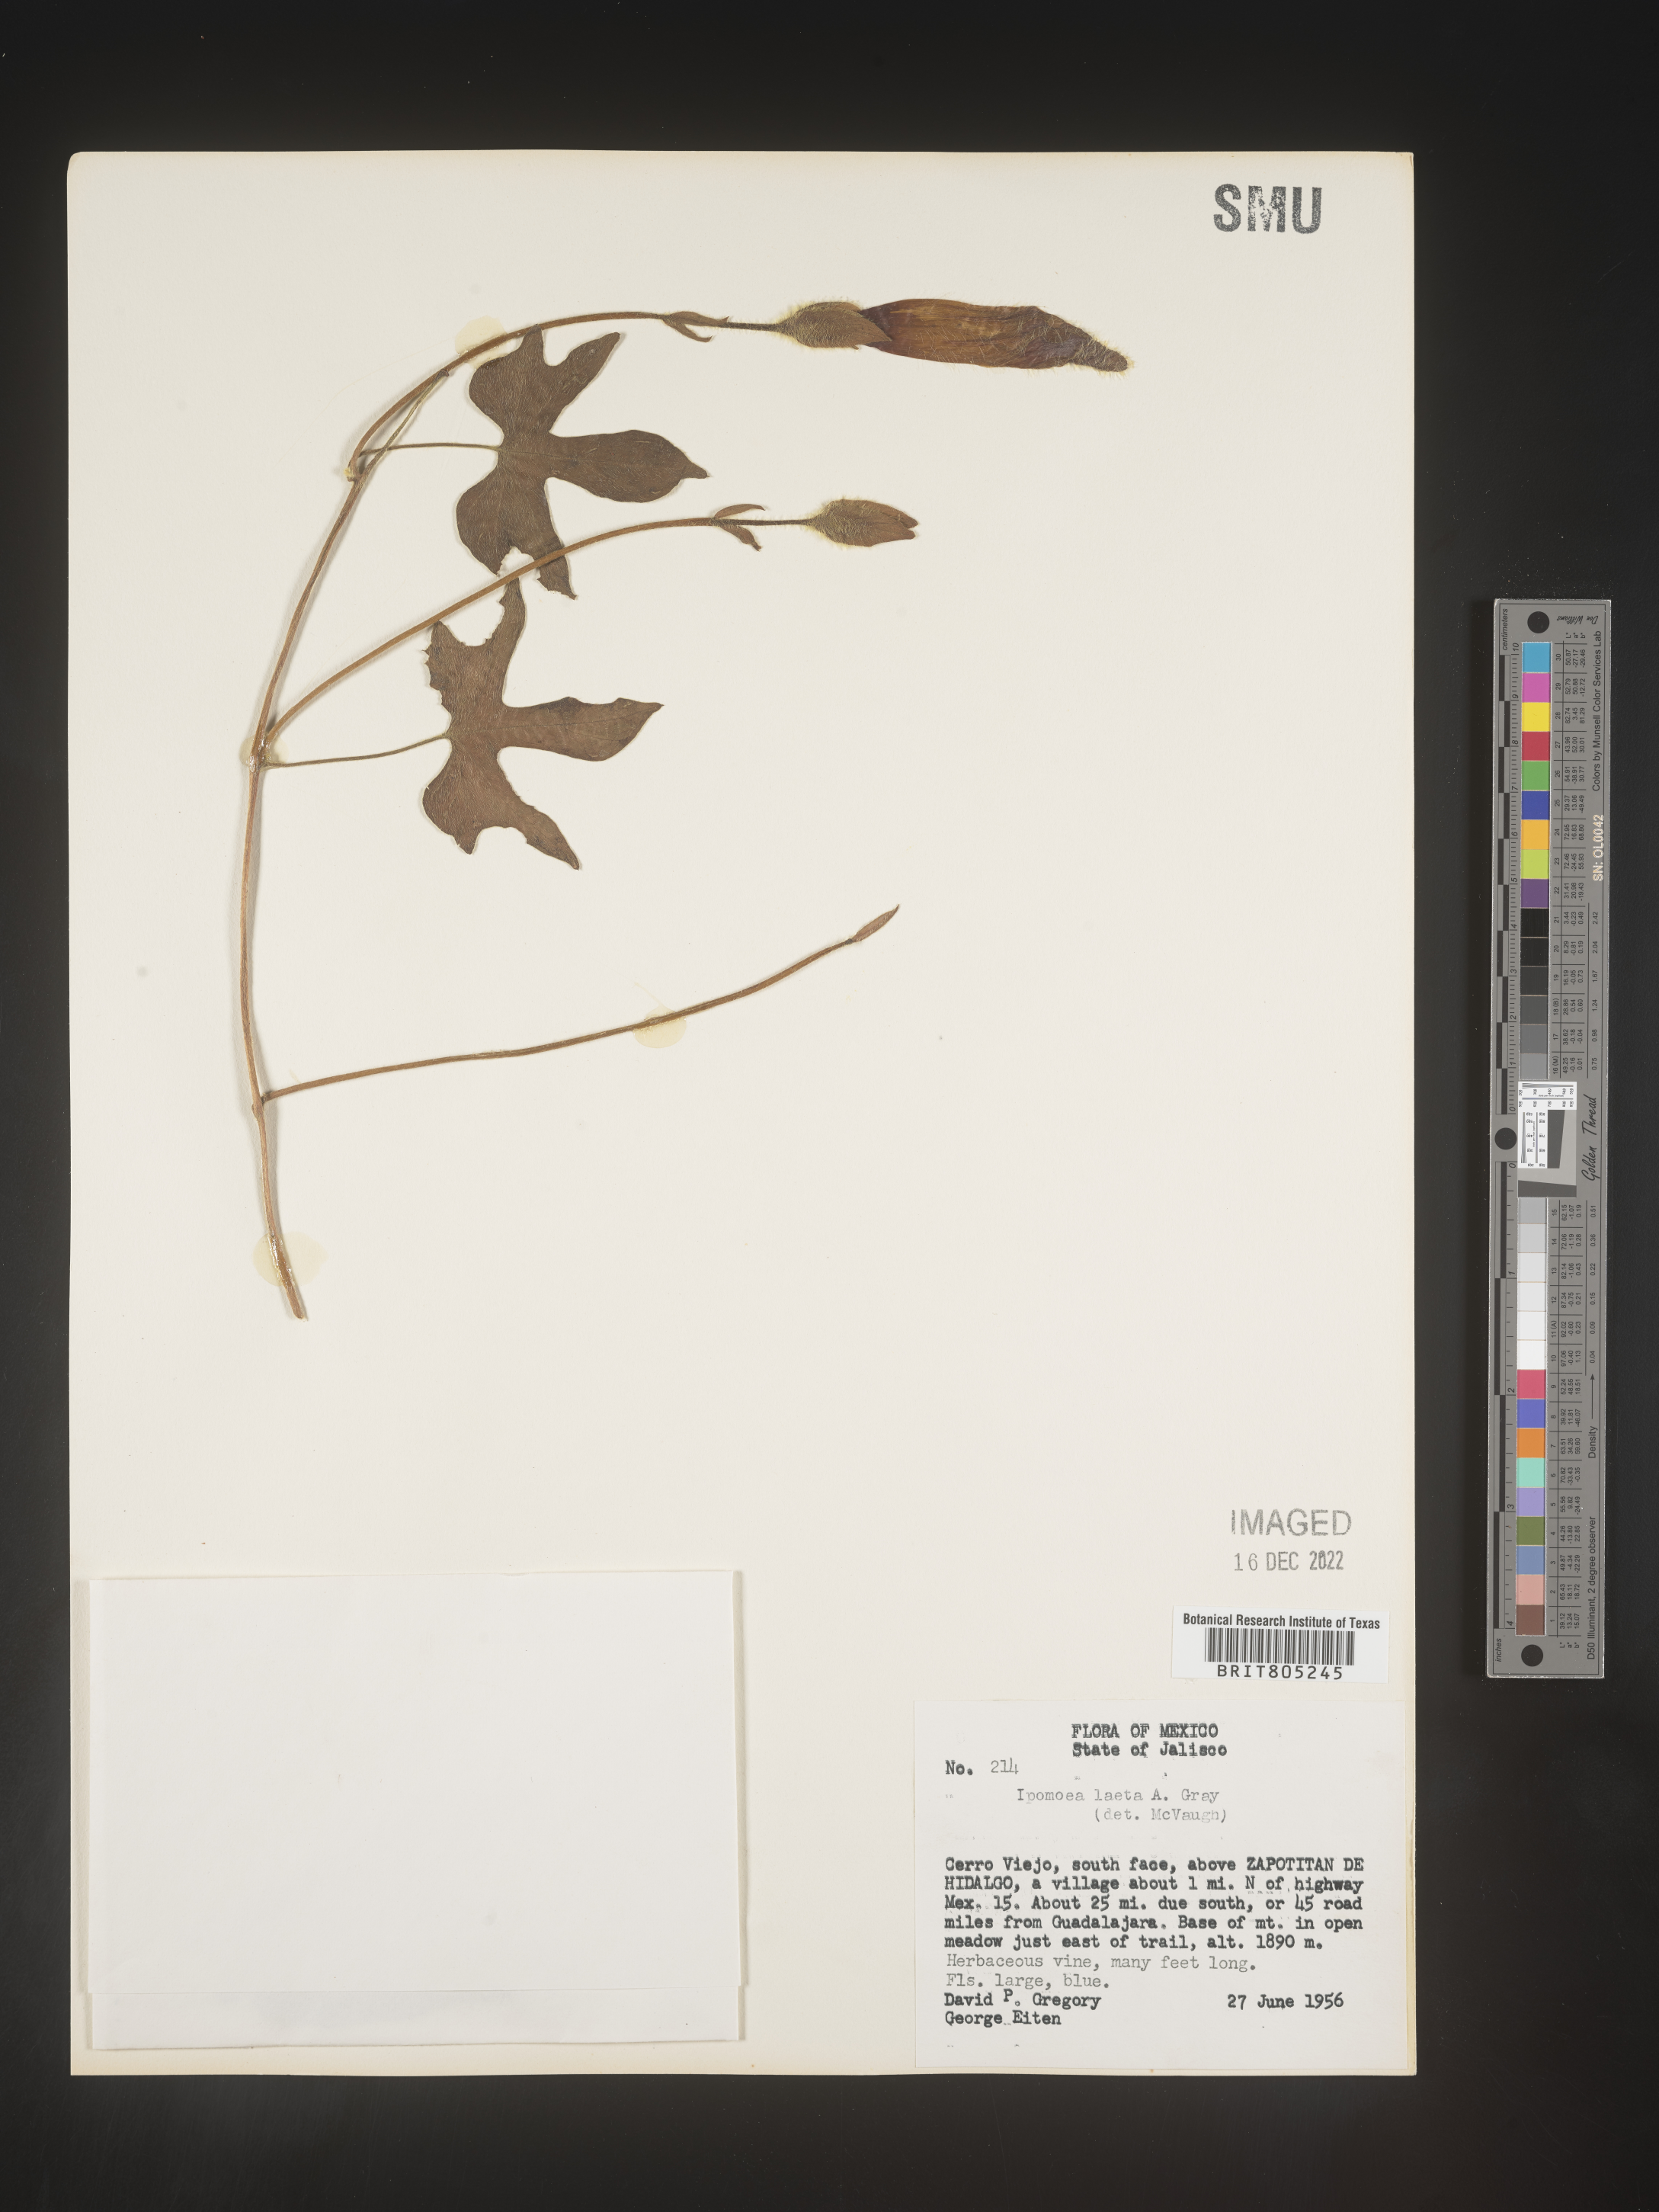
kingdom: Plantae
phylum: Tracheophyta
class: Magnoliopsida
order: Solanales
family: Convolvulaceae
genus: Ipomoea
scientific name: Ipomoea
